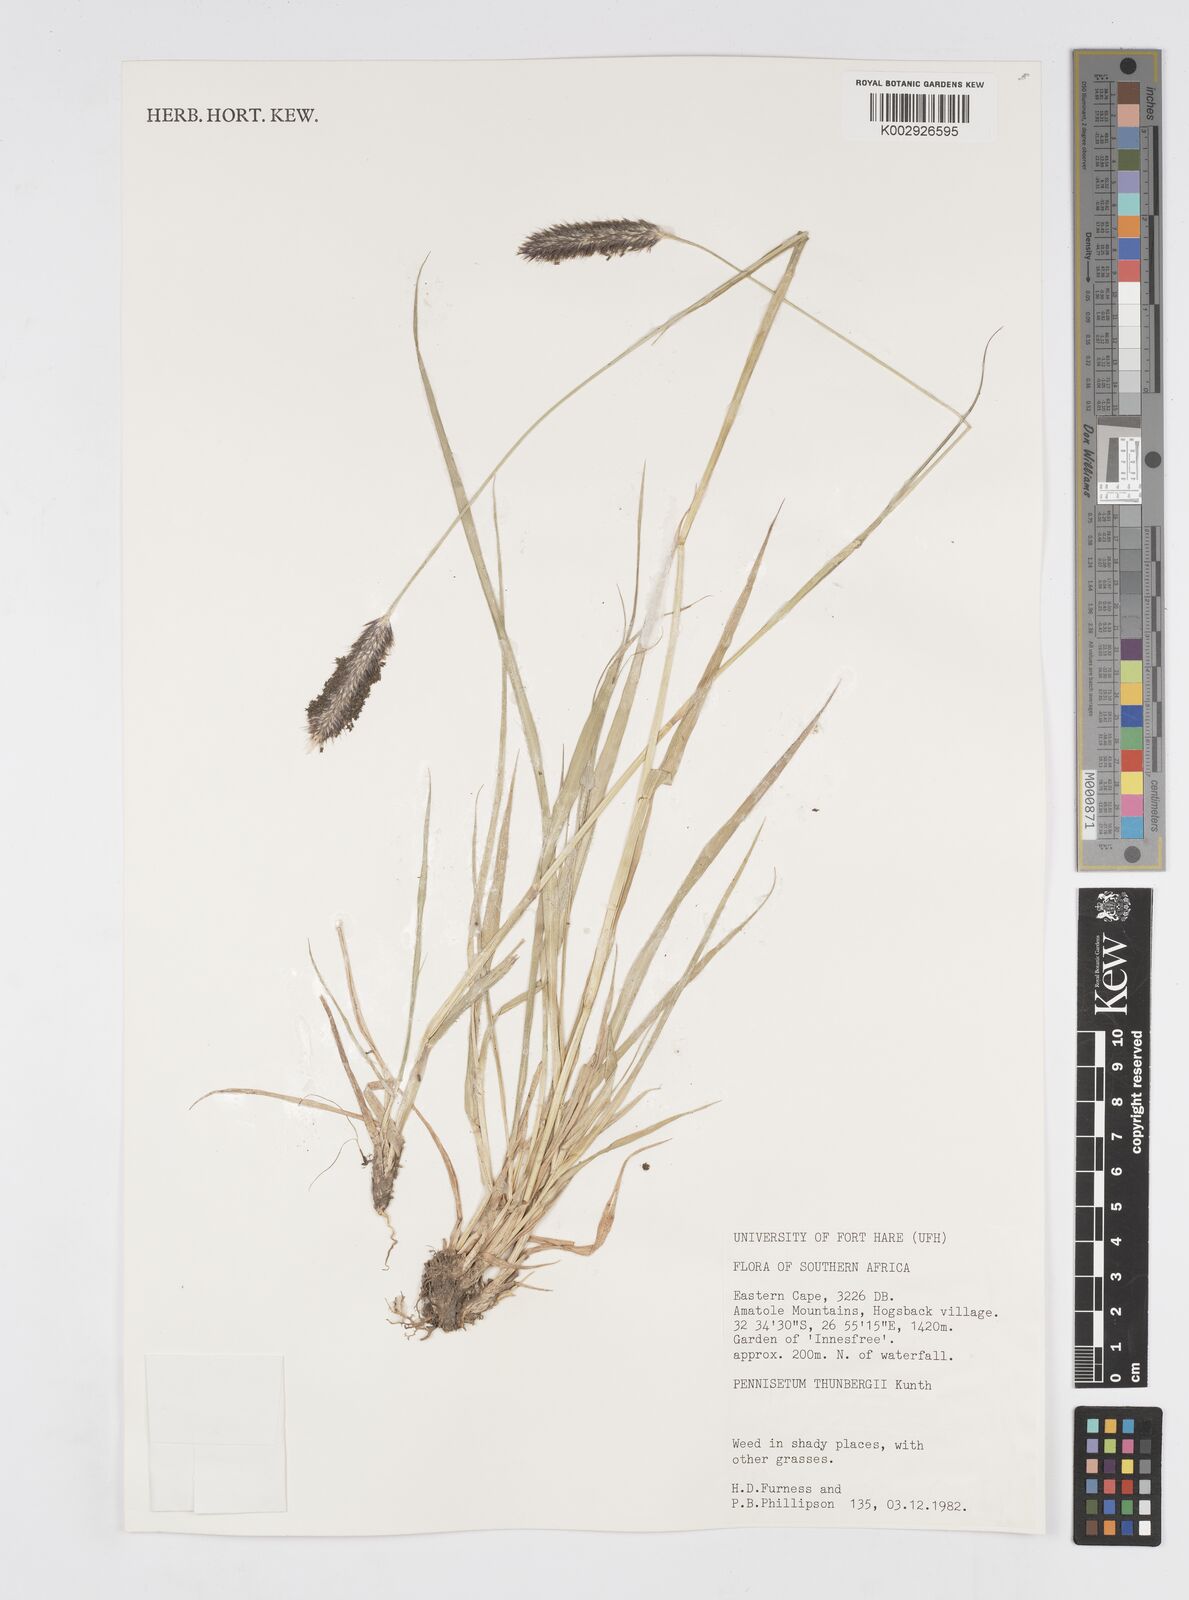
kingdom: Plantae
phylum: Tracheophyta
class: Liliopsida
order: Poales
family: Poaceae
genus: Cenchrus
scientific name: Cenchrus geniculatus
